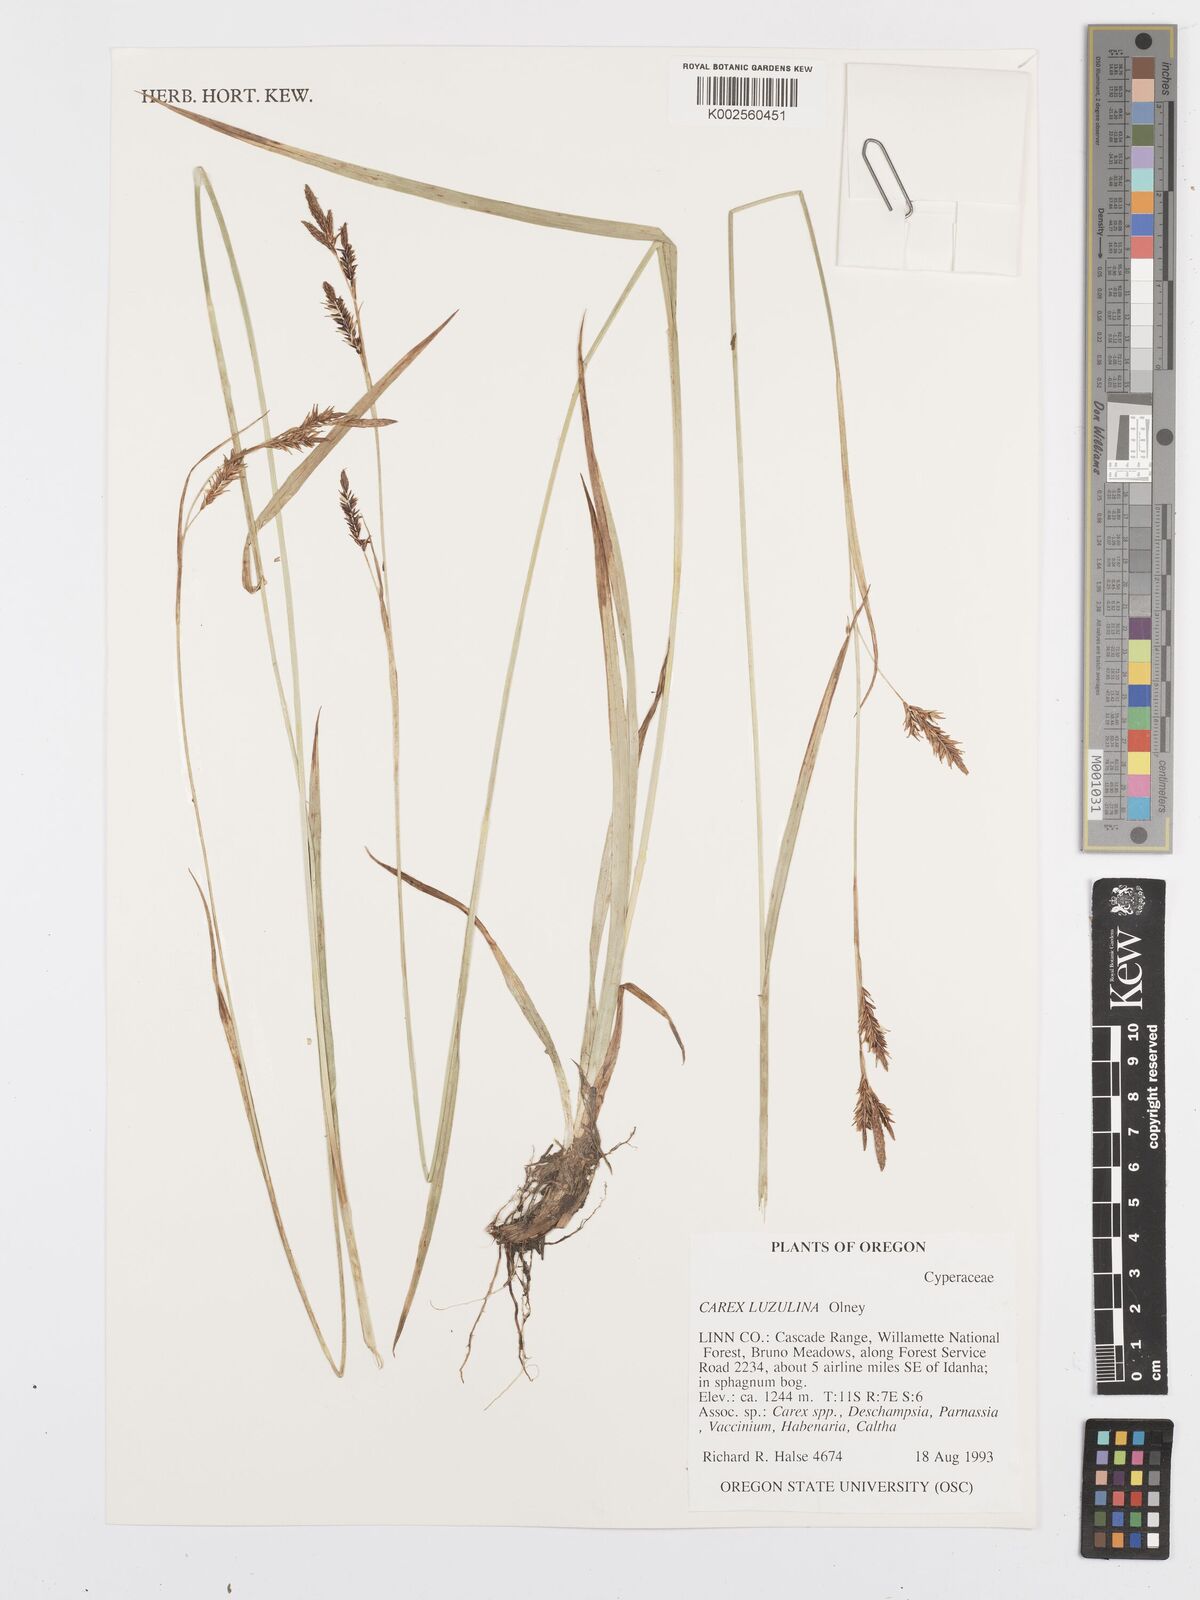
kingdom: Plantae
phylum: Tracheophyta
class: Liliopsida
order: Poales
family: Cyperaceae
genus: Carex
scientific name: Carex luzulina
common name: Spring sedge
